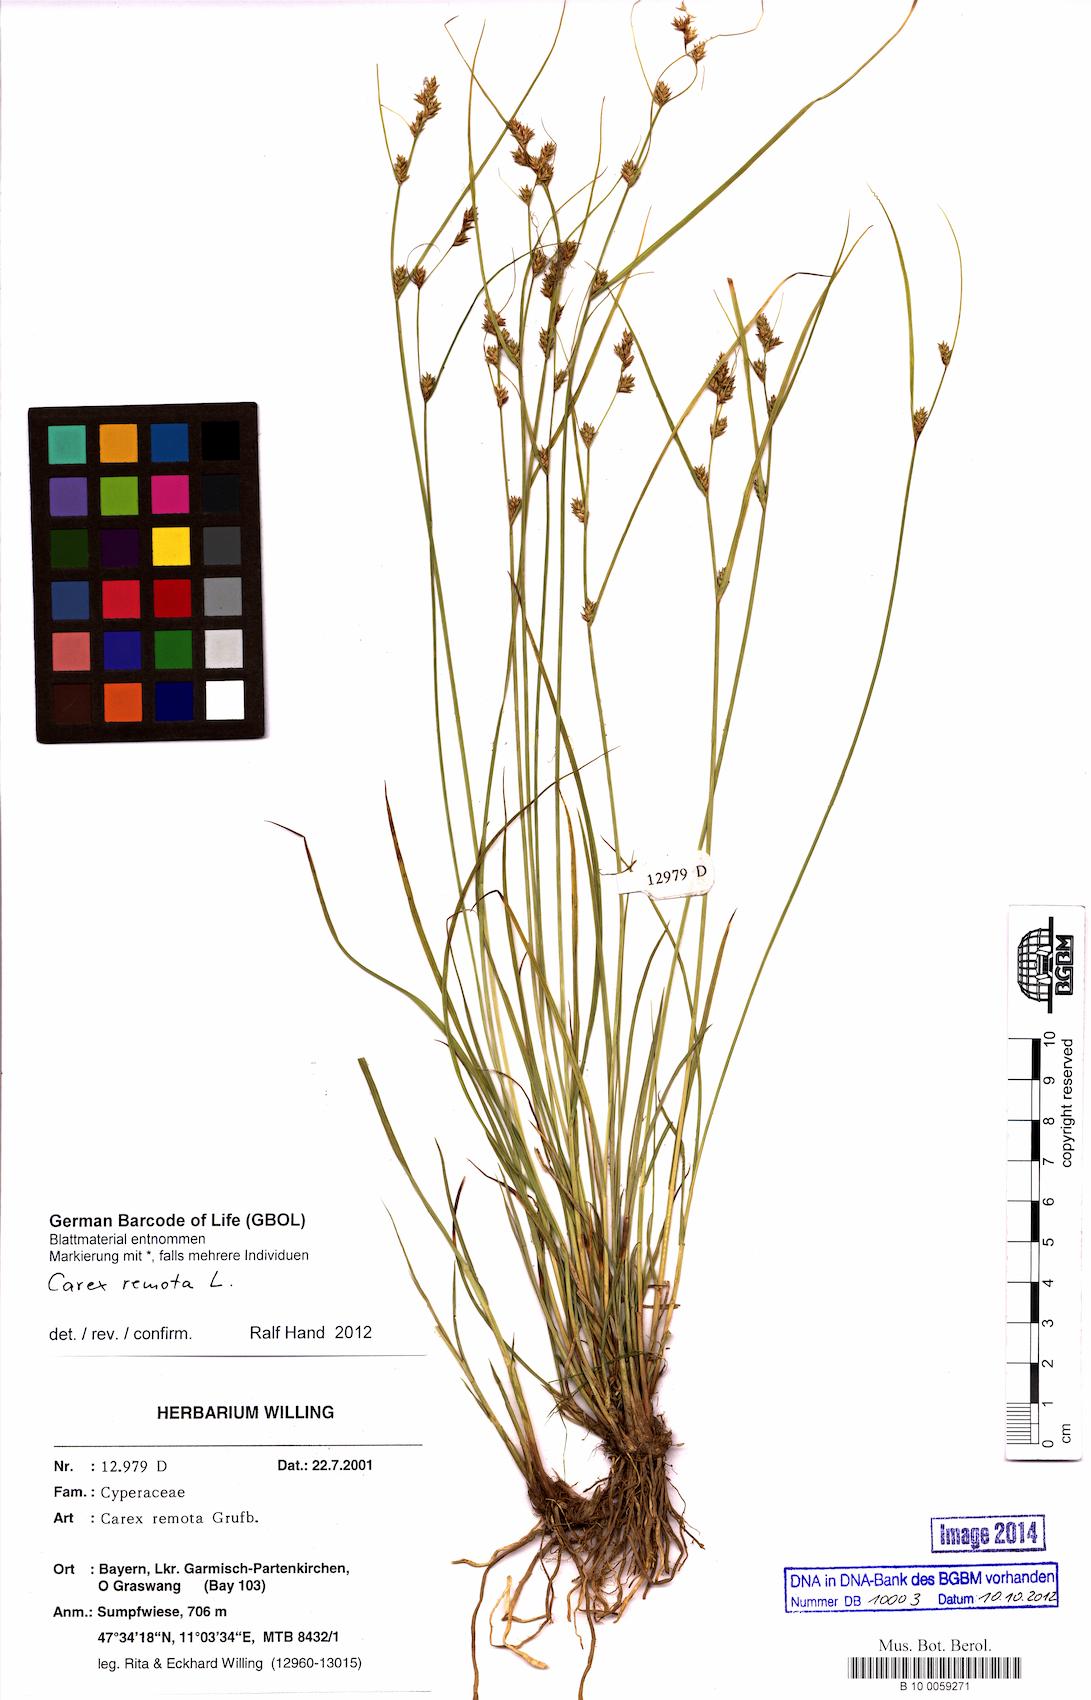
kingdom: Plantae
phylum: Tracheophyta
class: Liliopsida
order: Poales
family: Cyperaceae
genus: Carex
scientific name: Carex remota
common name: Remote sedge
